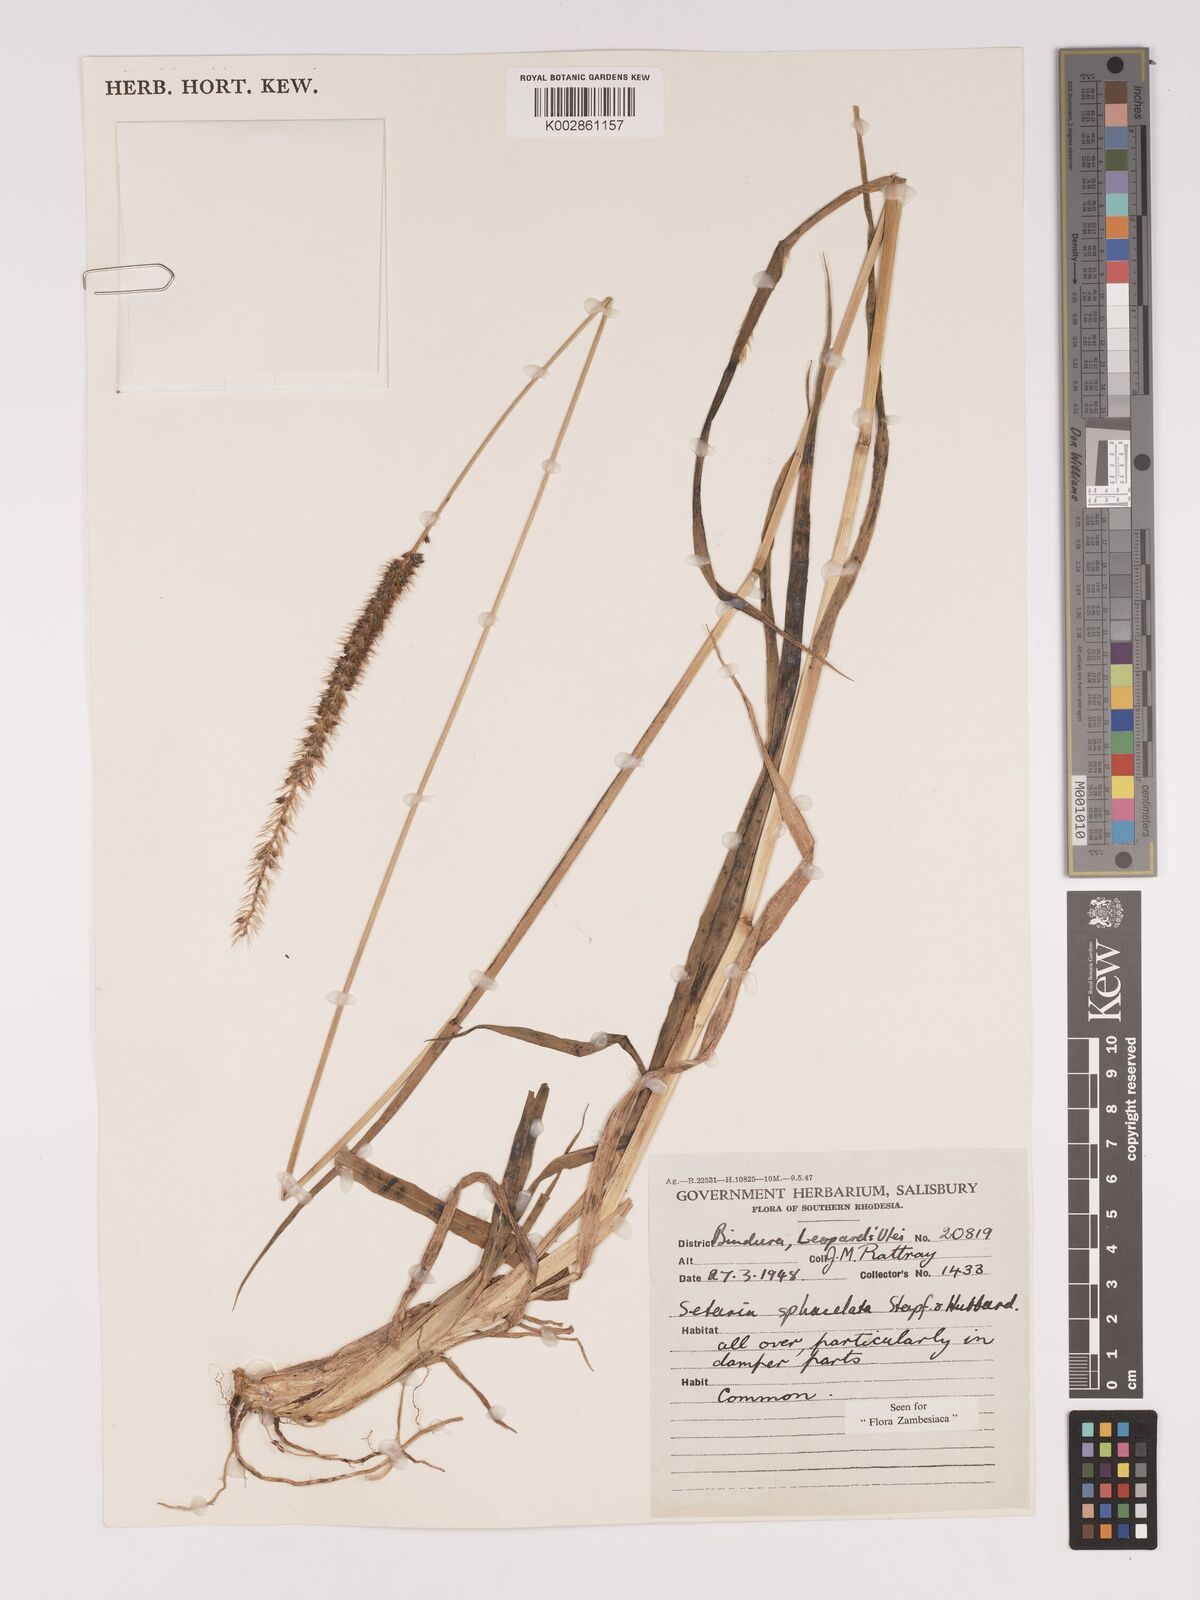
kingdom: Plantae
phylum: Tracheophyta
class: Liliopsida
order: Poales
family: Poaceae
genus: Setaria
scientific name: Setaria sphacelata
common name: African bristlegrass
